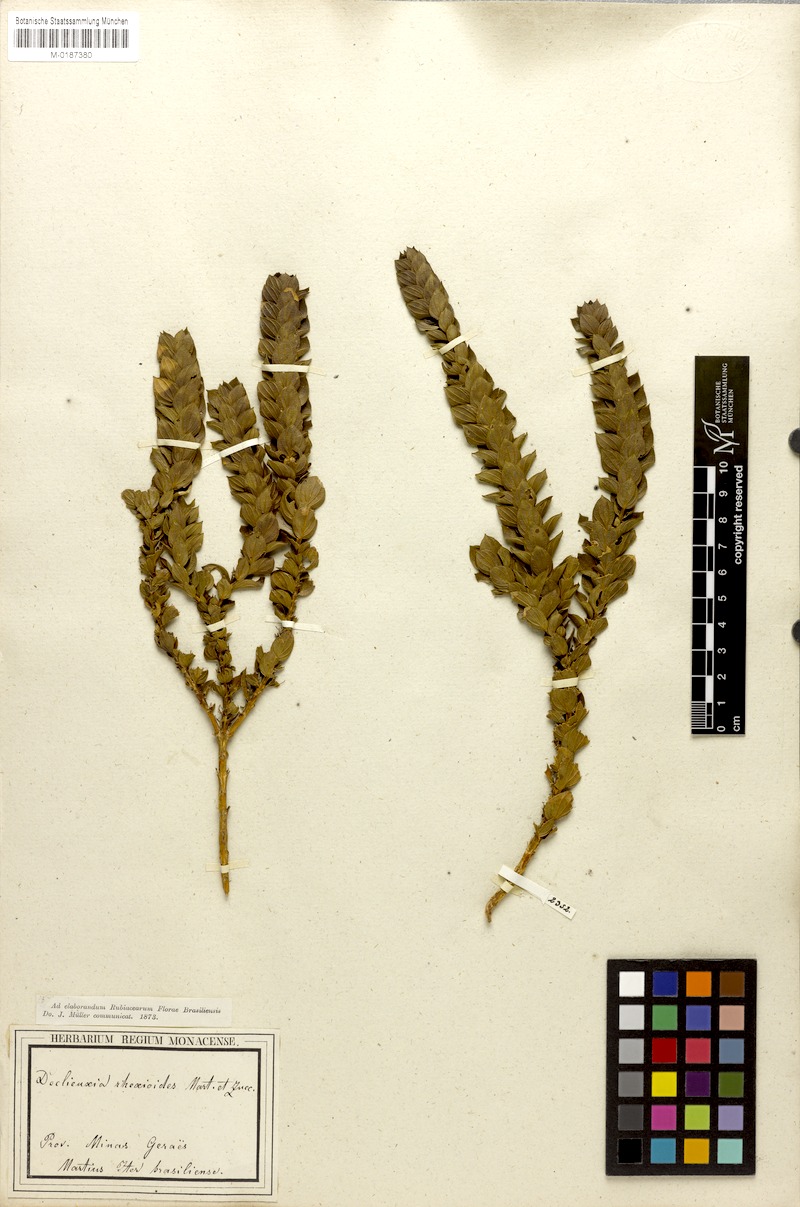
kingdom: Plantae
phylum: Tracheophyta
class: Magnoliopsida
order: Gentianales
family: Rubiaceae
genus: Declieuxia
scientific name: Declieuxia rhexioides
